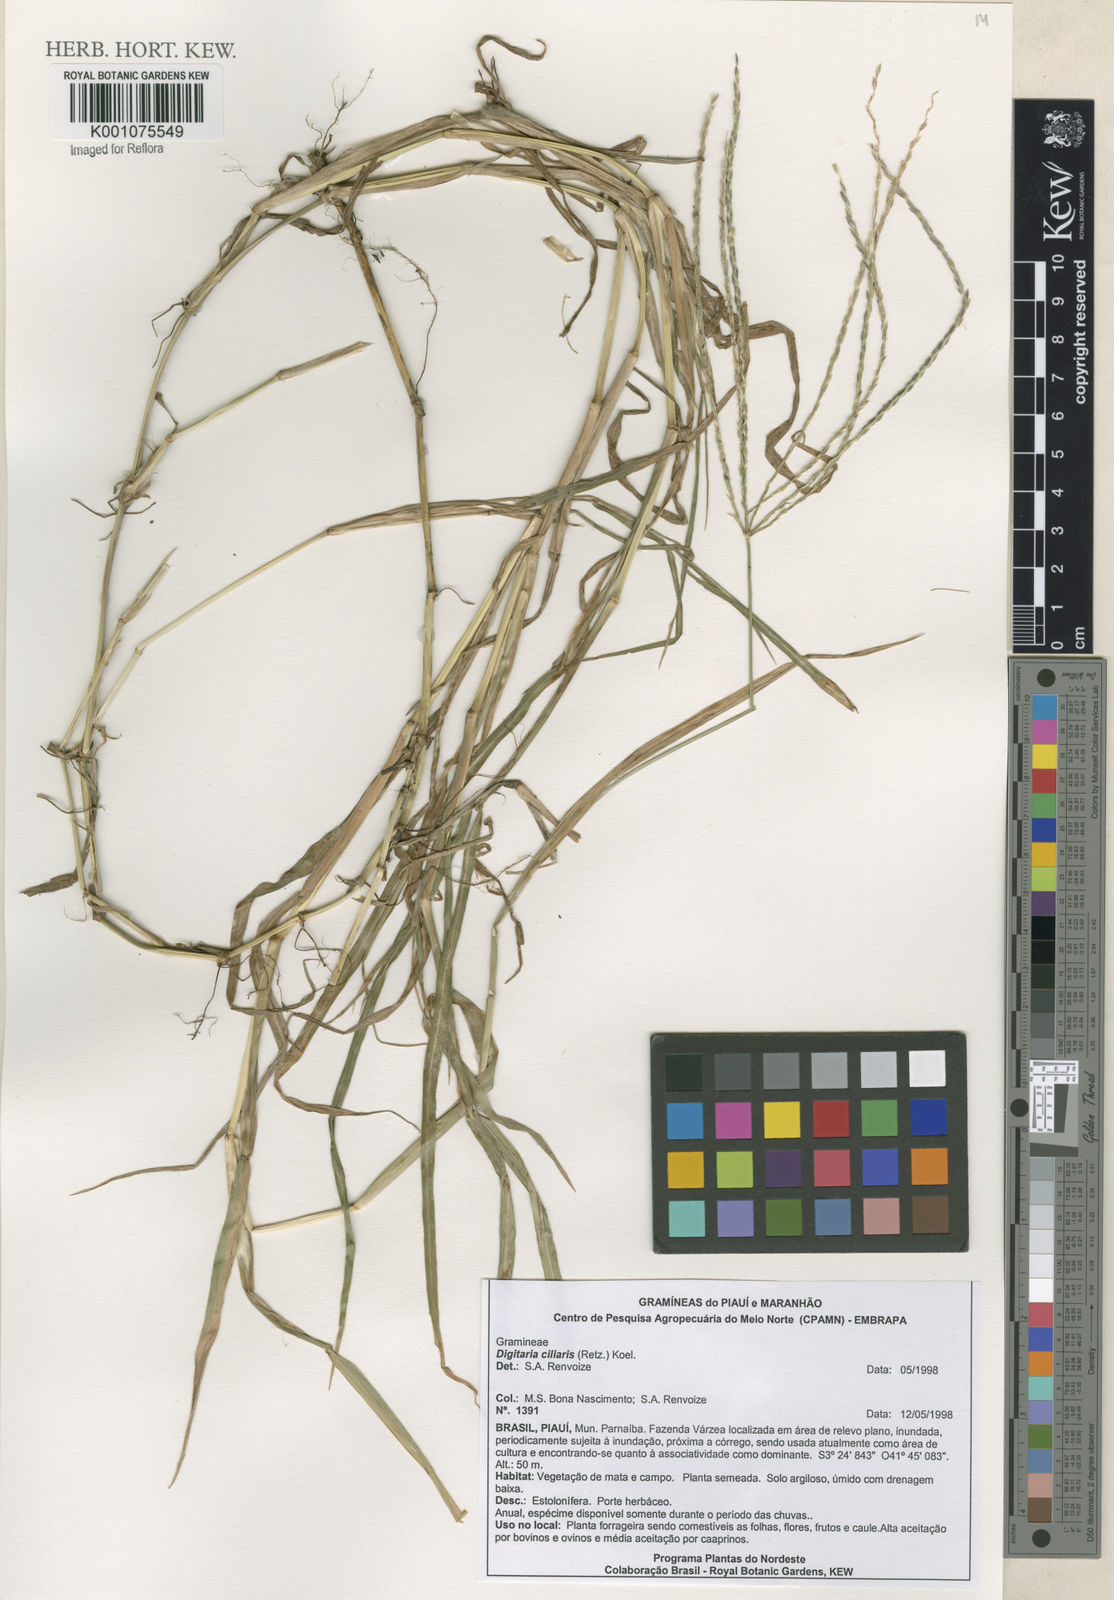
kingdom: Plantae
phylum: Tracheophyta
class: Liliopsida
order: Poales
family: Poaceae
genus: Digitaria
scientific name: Digitaria ciliaris
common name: Tropical finger-grass
